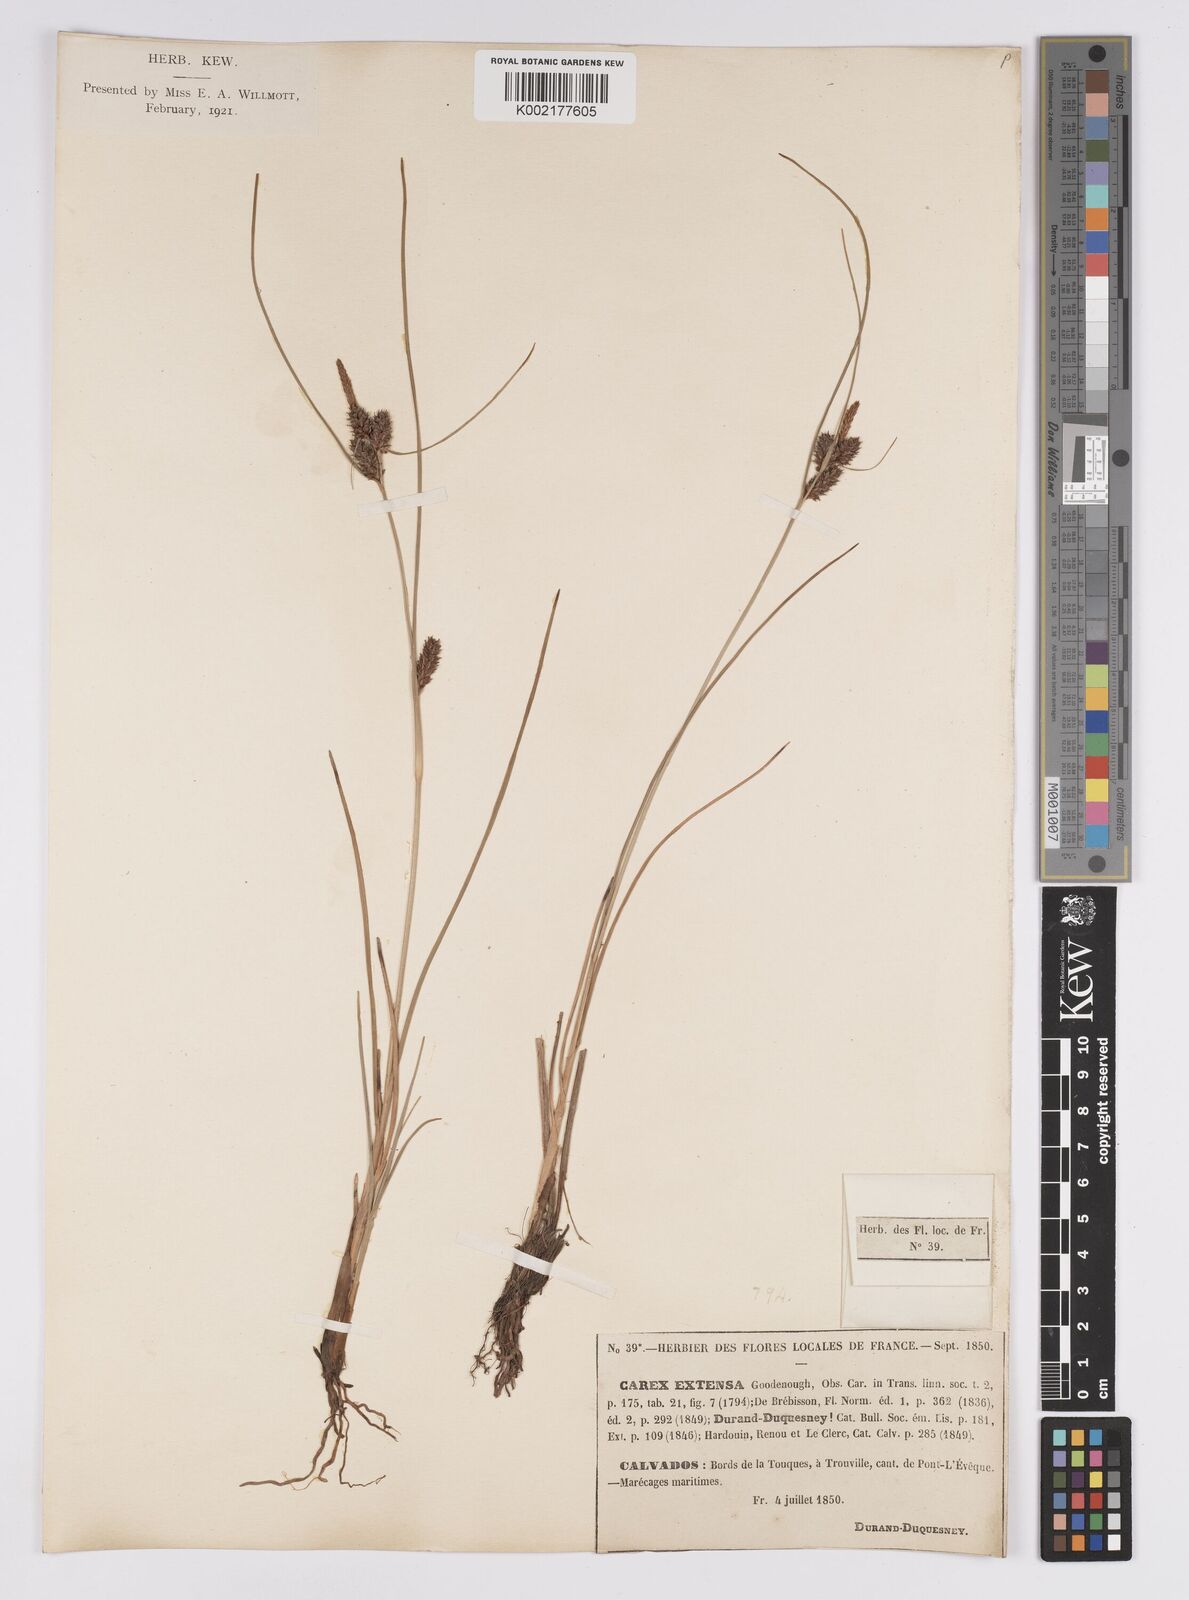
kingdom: Plantae
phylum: Tracheophyta
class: Liliopsida
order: Poales
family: Cyperaceae
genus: Carex
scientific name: Carex extensa
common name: Long-bracted sedge
